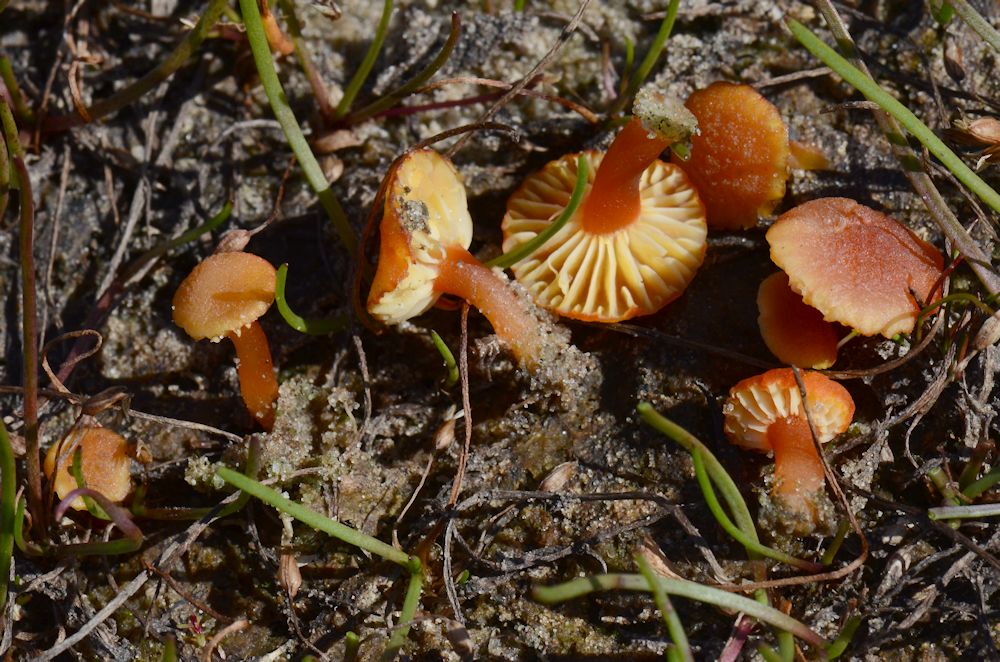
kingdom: Fungi
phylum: Basidiomycota
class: Agaricomycetes
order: Agaricales
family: Hygrophoraceae
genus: Hygrocybe
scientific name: Hygrocybe coccineocrenata
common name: tørvemos-vokshat
